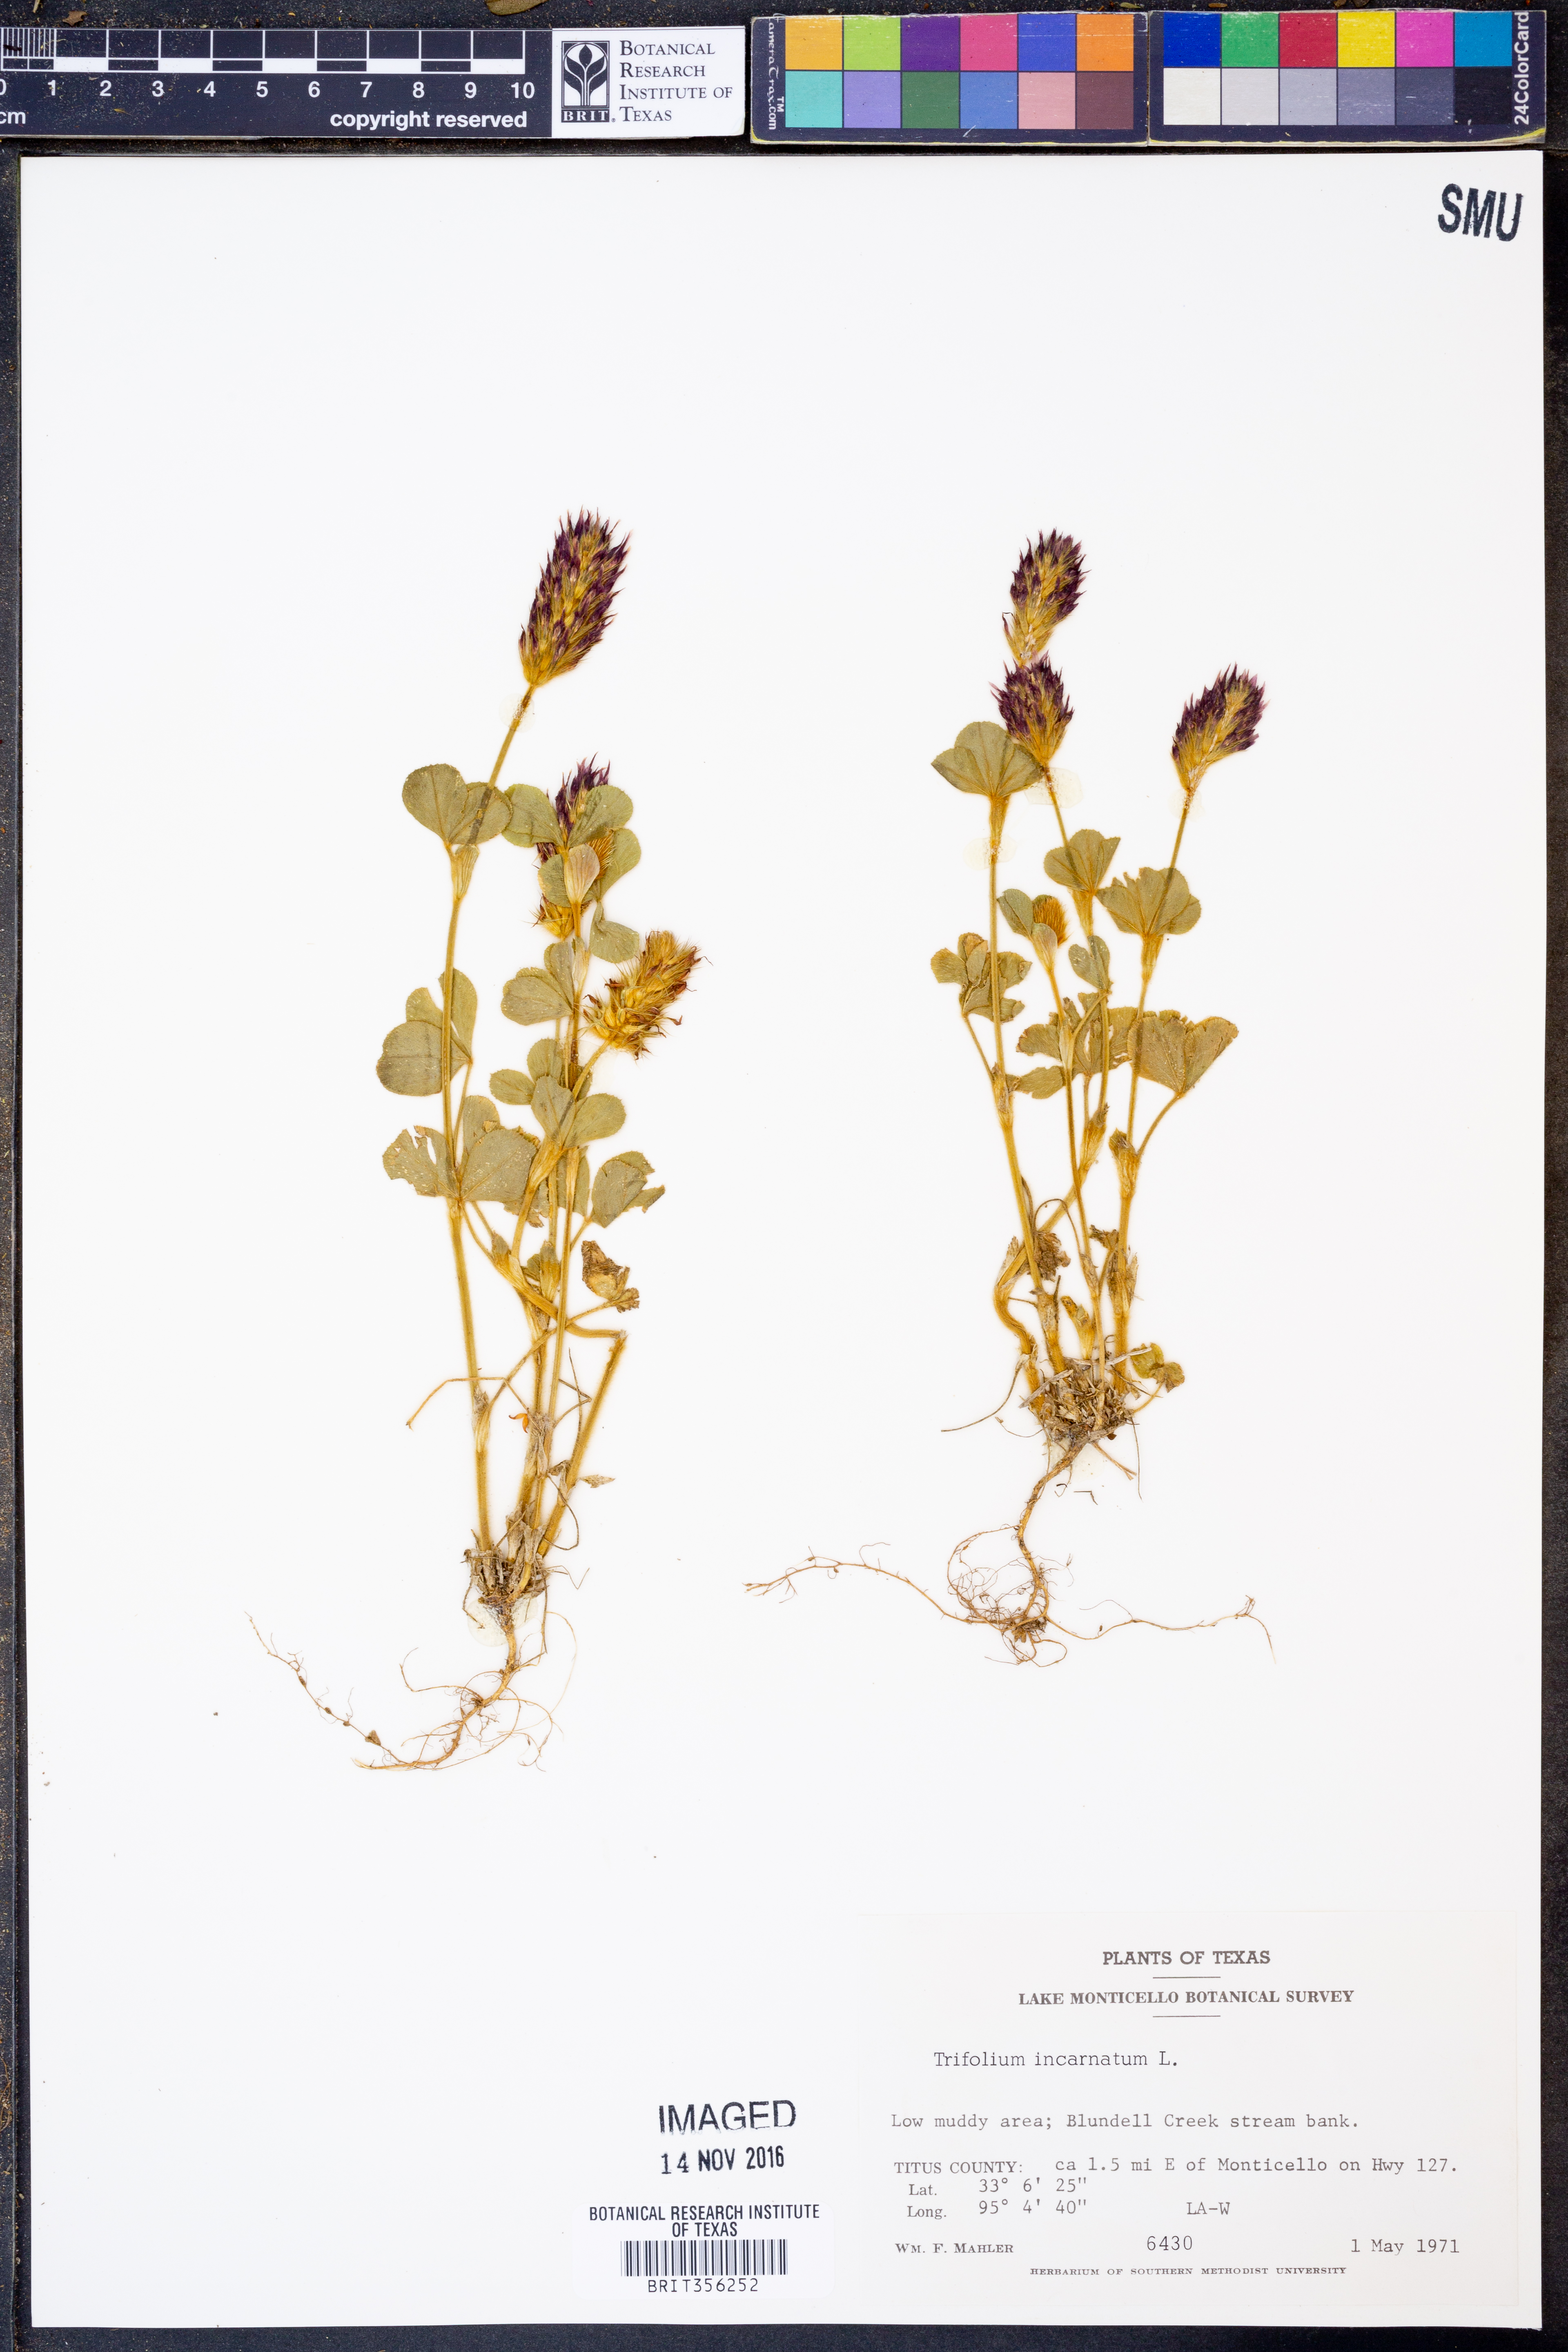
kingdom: Plantae
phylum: Tracheophyta
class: Magnoliopsida
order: Fabales
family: Fabaceae
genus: Trifolium
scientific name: Trifolium incarnatum
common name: Crimson clover
